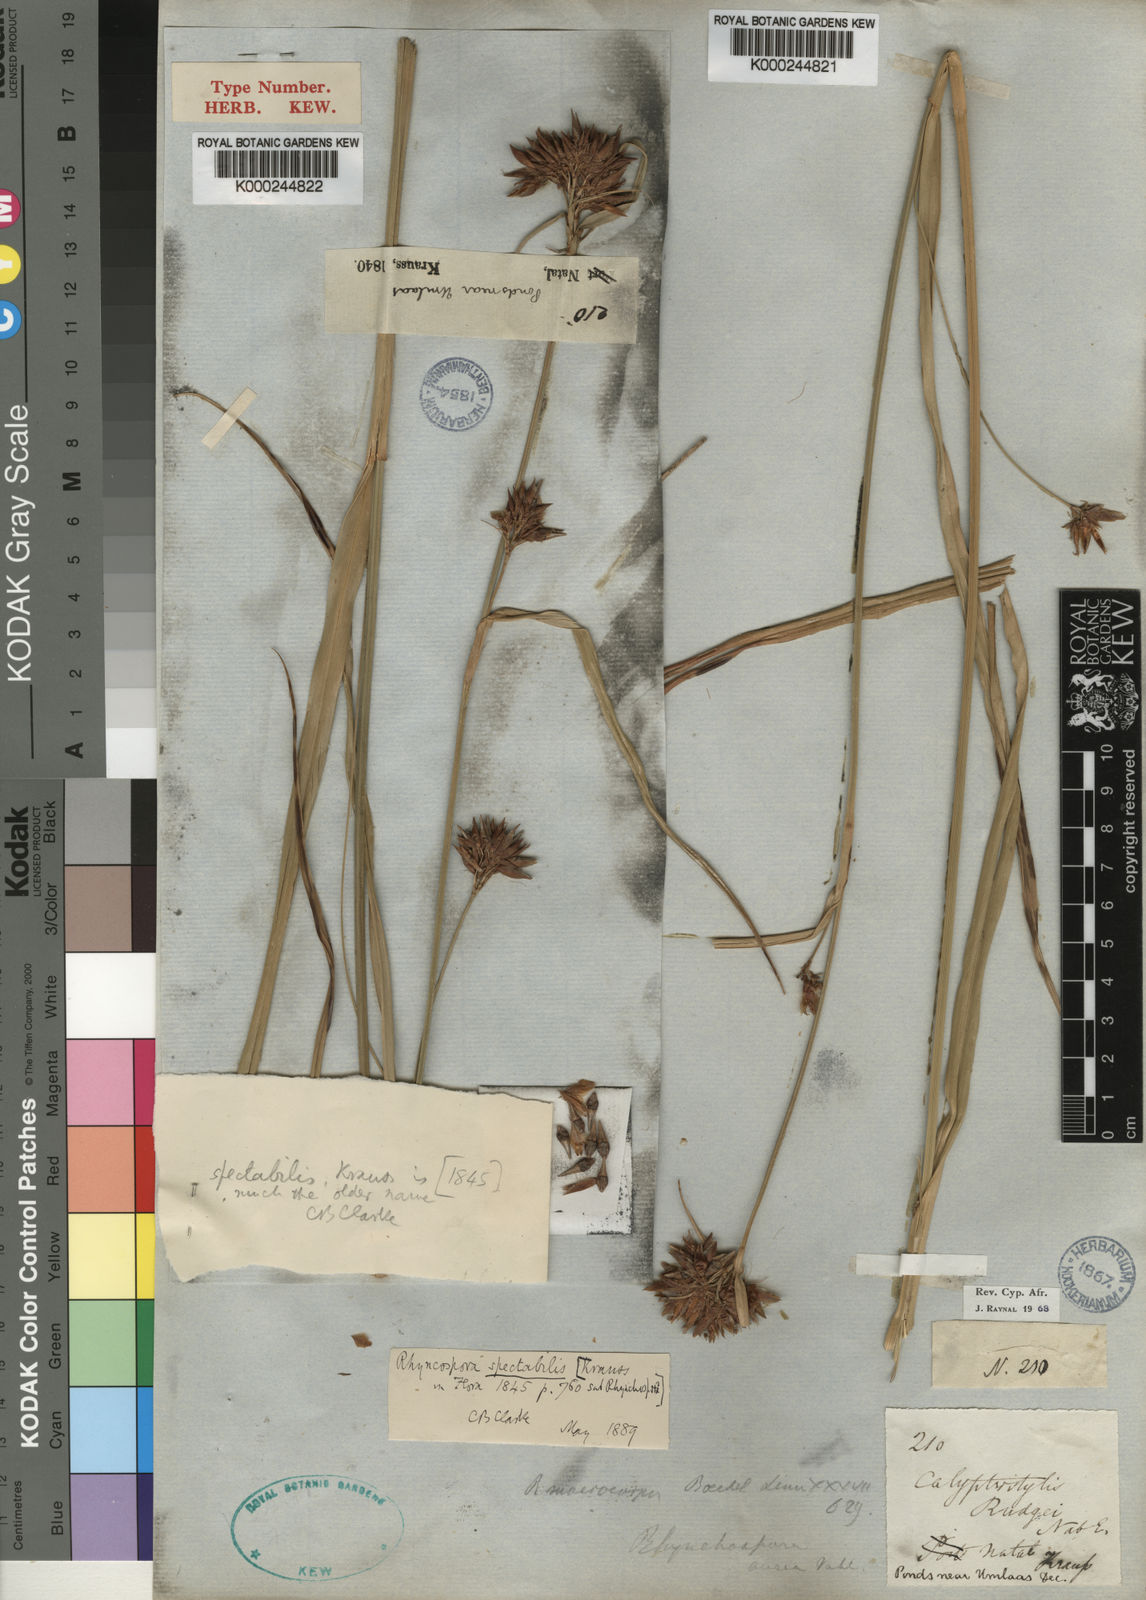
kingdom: Plantae
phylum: Tracheophyta
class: Liliopsida
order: Poales
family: Cyperaceae
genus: Rhynchospora
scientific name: Rhynchospora corymbosa
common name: Golden beak sedge
